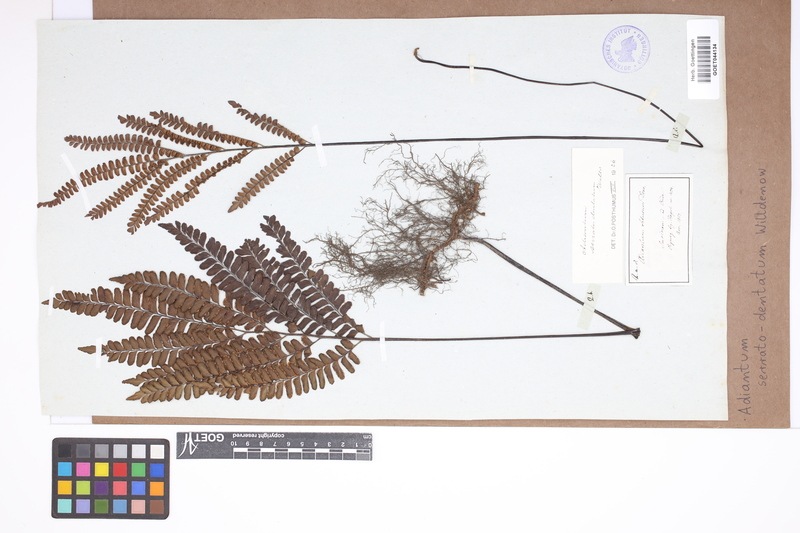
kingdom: Plantae
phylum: Tracheophyta
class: Polypodiopsida
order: Polypodiales
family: Pteridaceae
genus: Adiantum
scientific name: Adiantum serratodentatum
